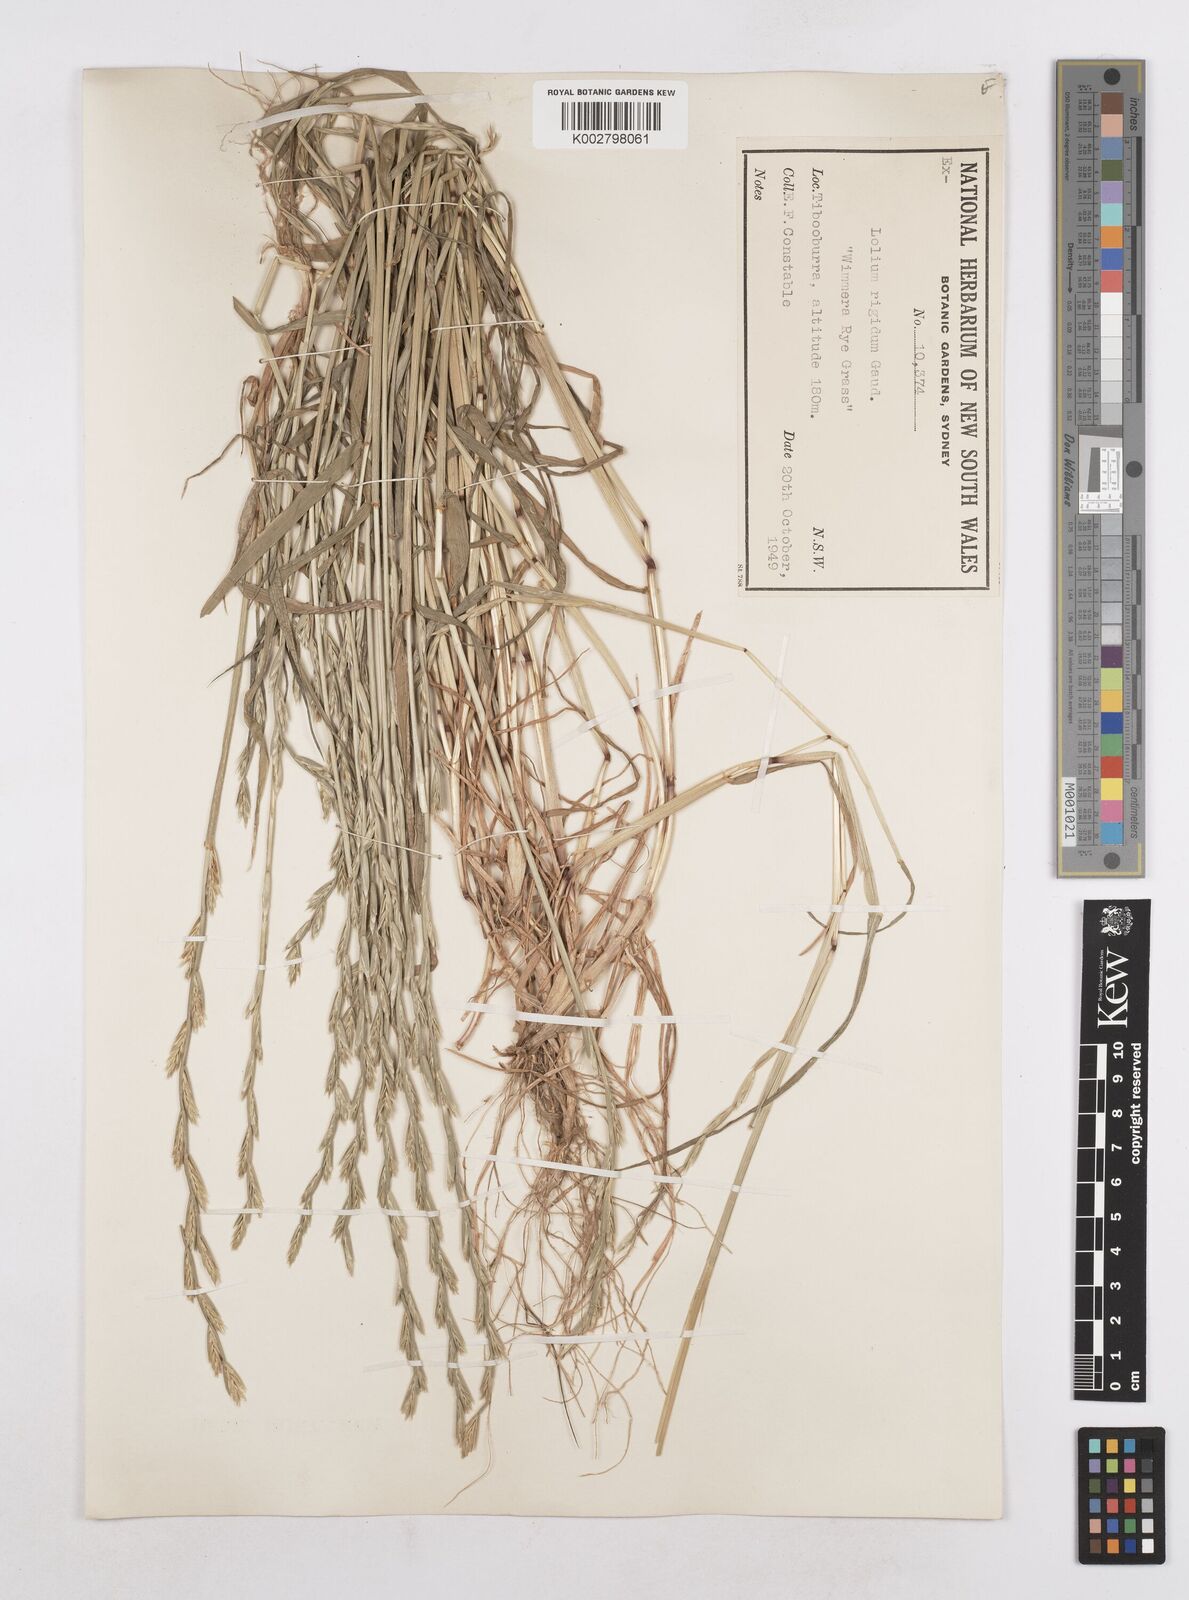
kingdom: Plantae
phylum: Tracheophyta
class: Liliopsida
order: Poales
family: Poaceae
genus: Lolium
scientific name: Lolium
